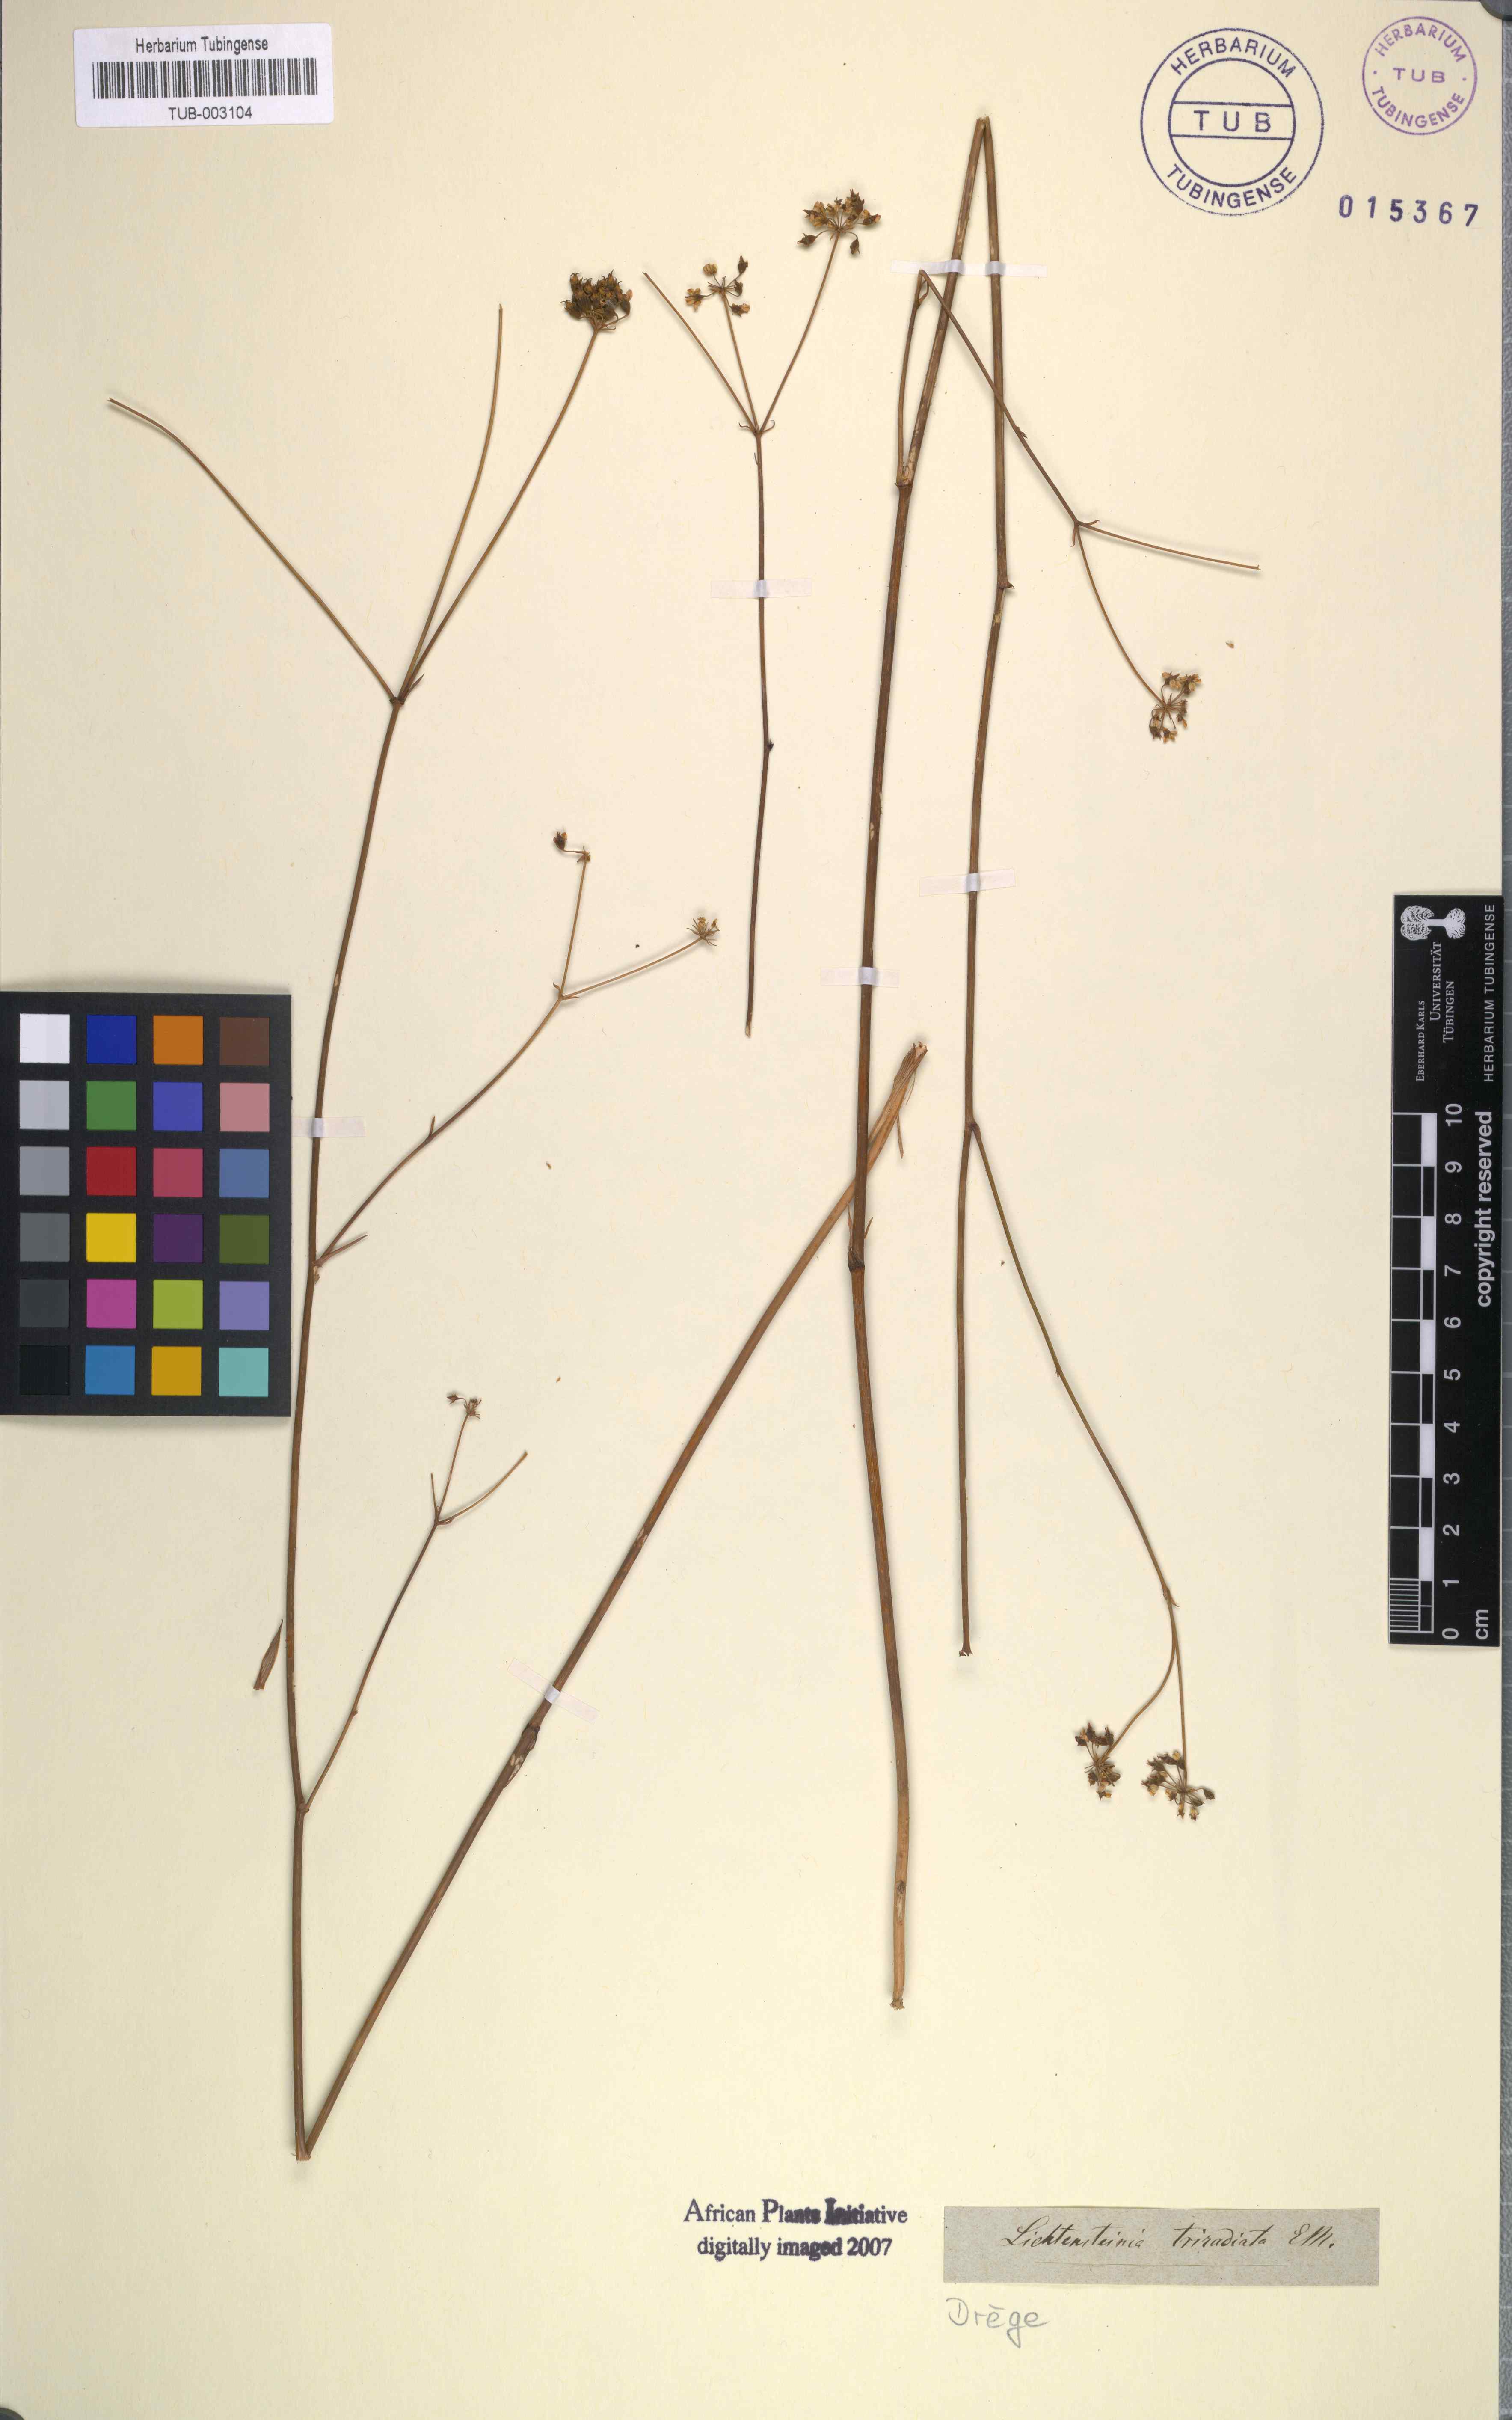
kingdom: Plantae
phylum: Tracheophyta
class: Magnoliopsida
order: Apiales
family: Apiaceae
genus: Lichtensteinia
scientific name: Lichtensteinia obscura
